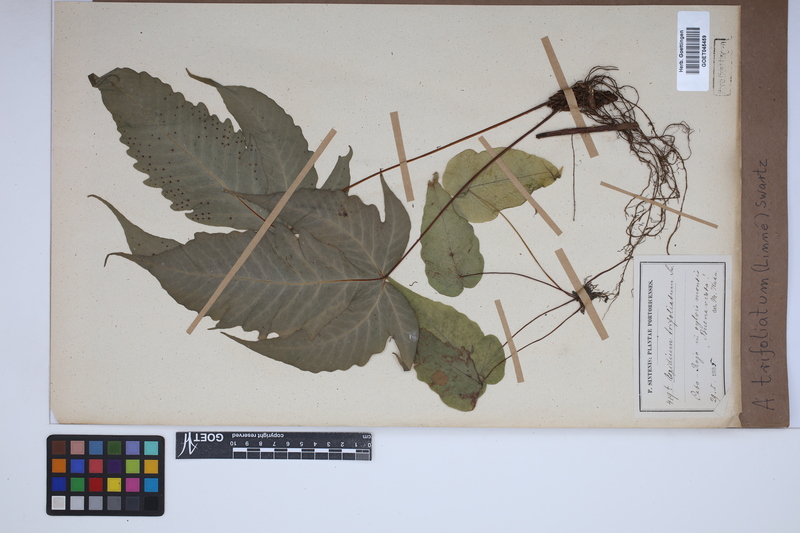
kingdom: Plantae
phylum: Tracheophyta
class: Polypodiopsida
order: Polypodiales
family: Tectariaceae
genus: Tectaria
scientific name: Tectaria trifoliata
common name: Threeleaf halberd fern
